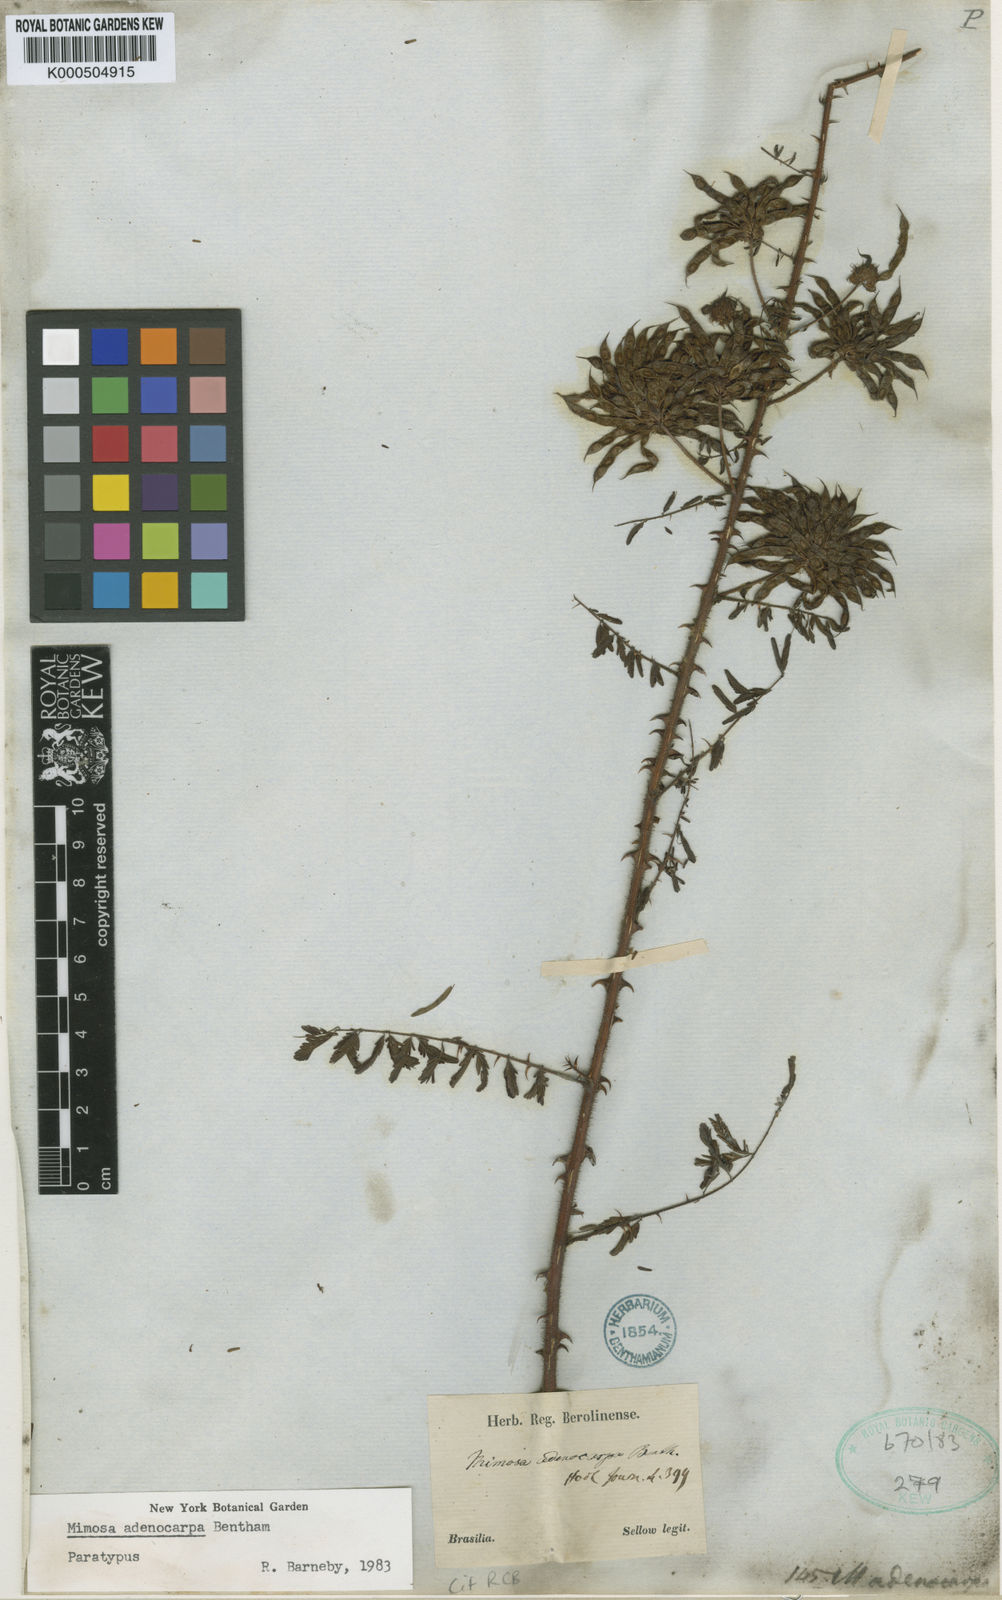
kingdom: Plantae
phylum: Tracheophyta
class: Magnoliopsida
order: Fabales
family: Fabaceae
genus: Mimosa
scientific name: Mimosa adenocarpa
